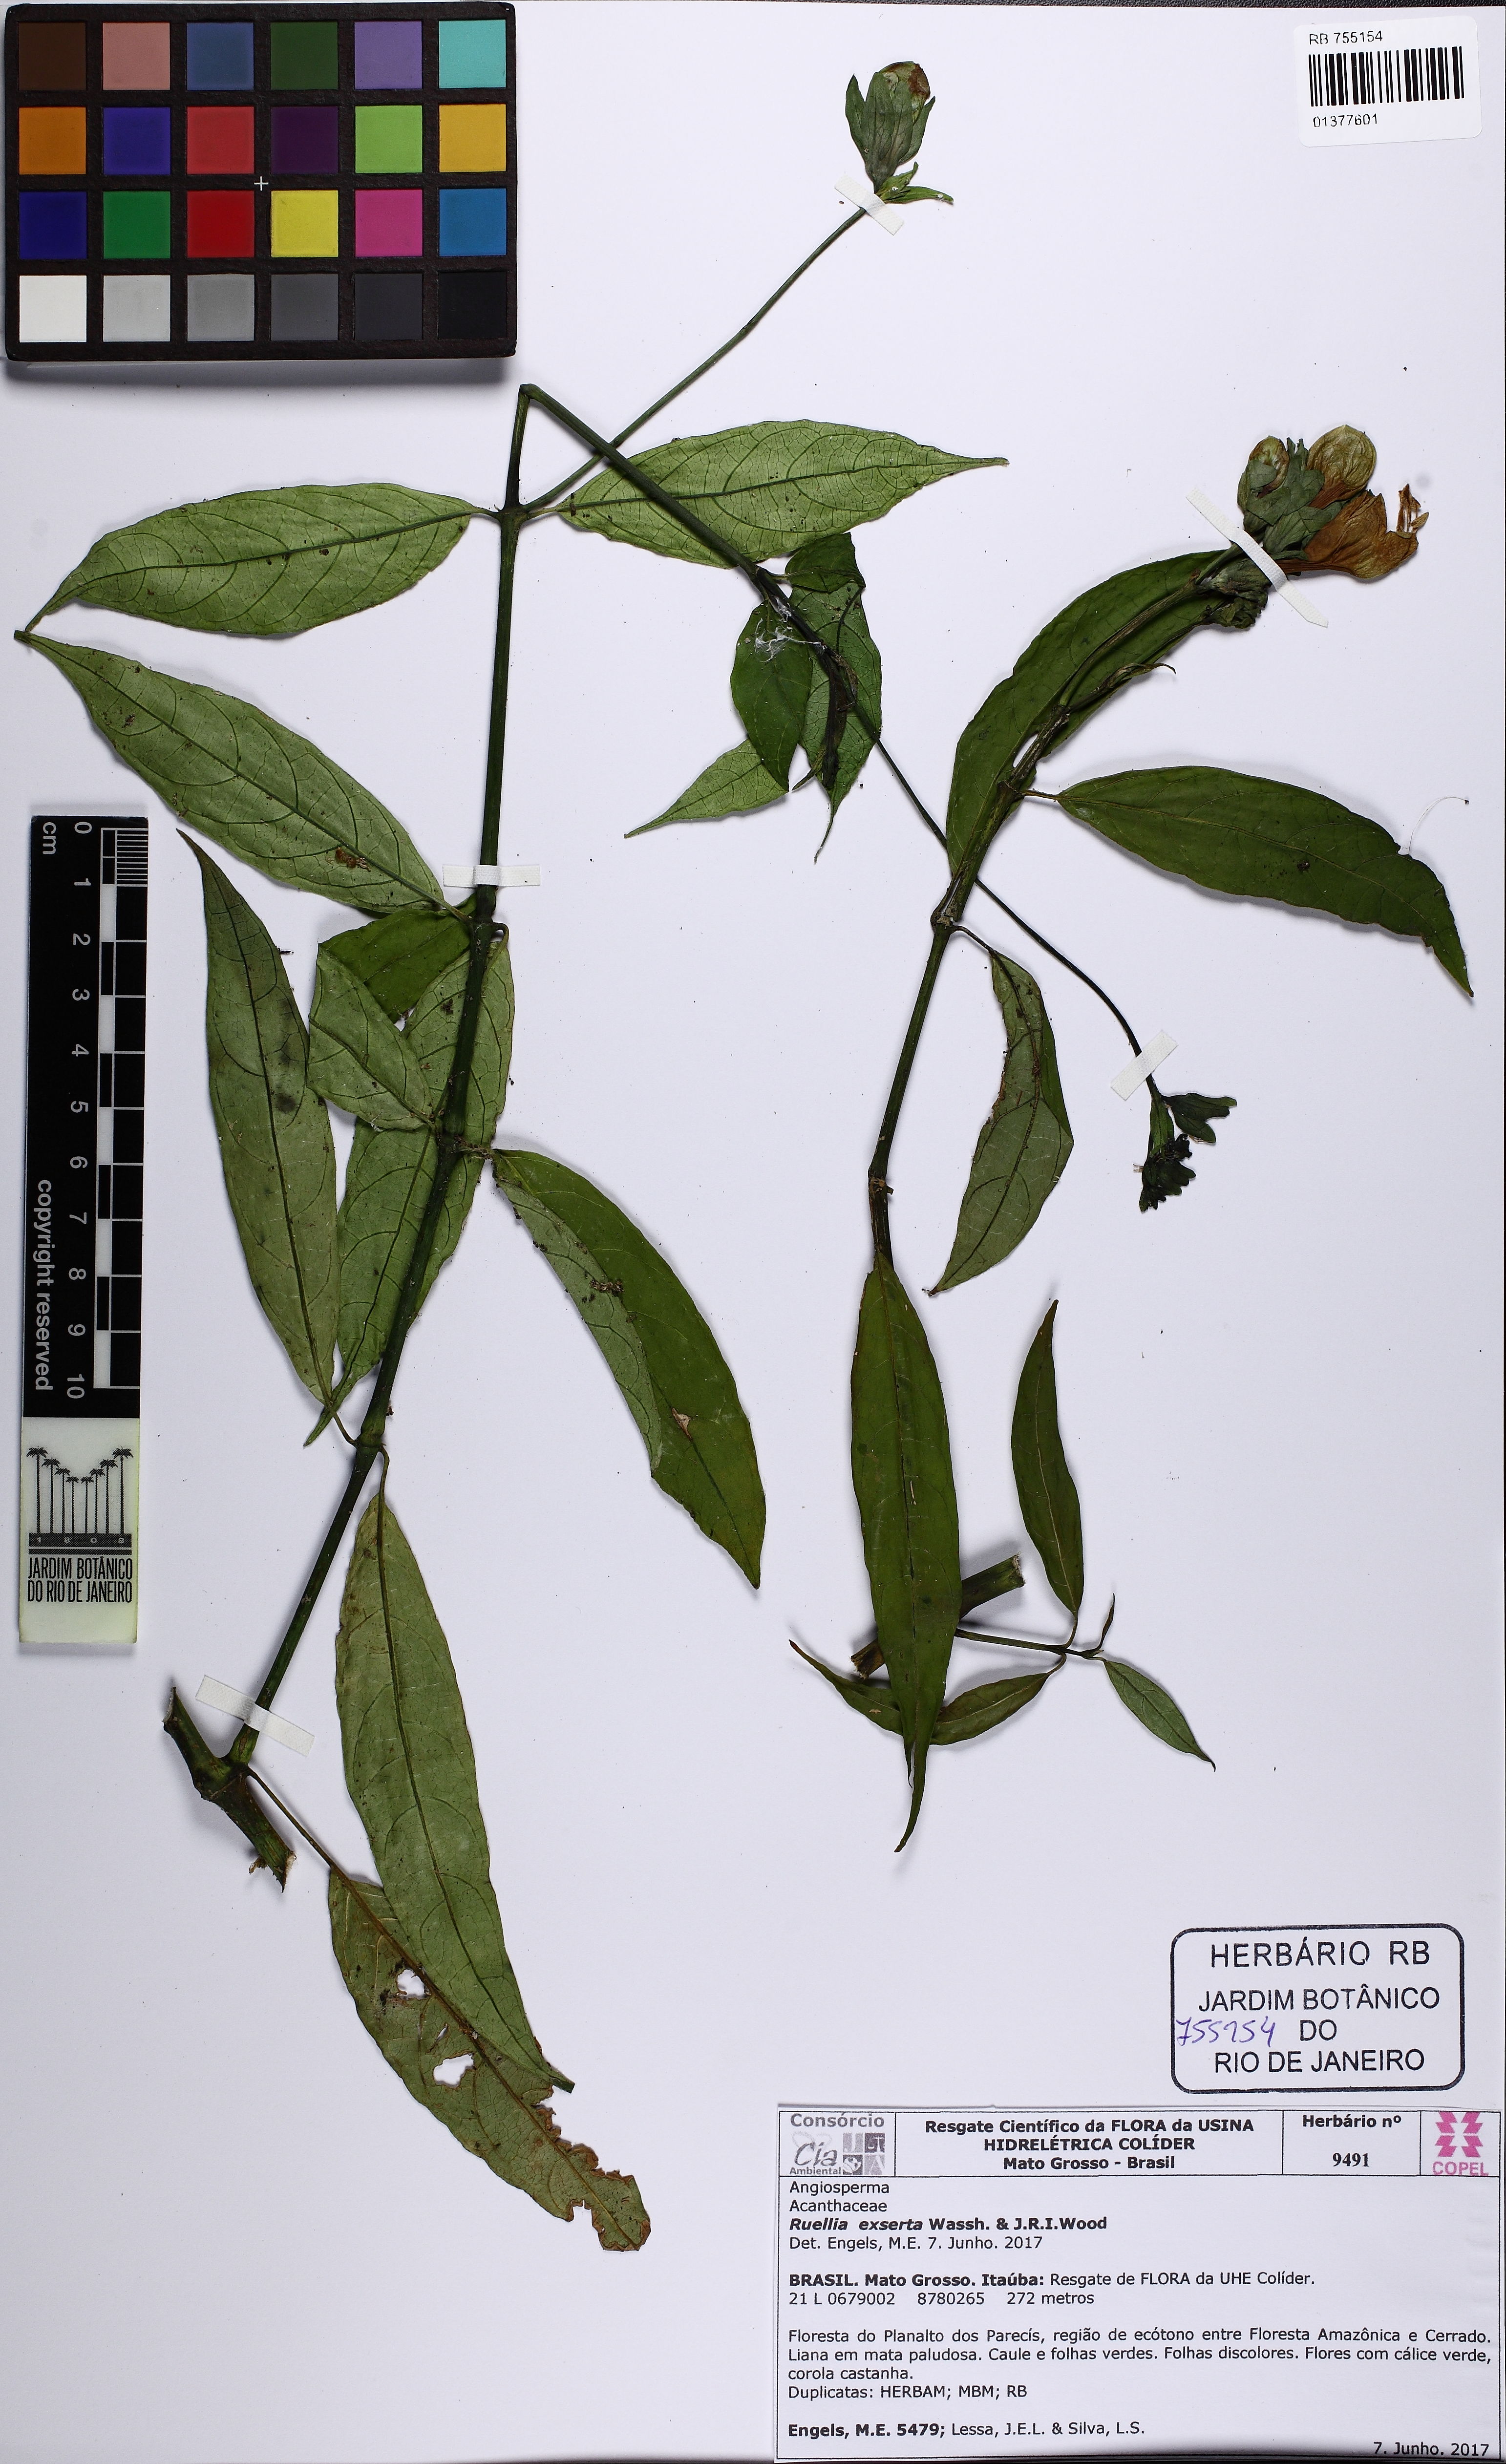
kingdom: Plantae
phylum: Tracheophyta
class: Magnoliopsida
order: Lamiales
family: Acanthaceae
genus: Ruellia
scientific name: Ruellia exserta
